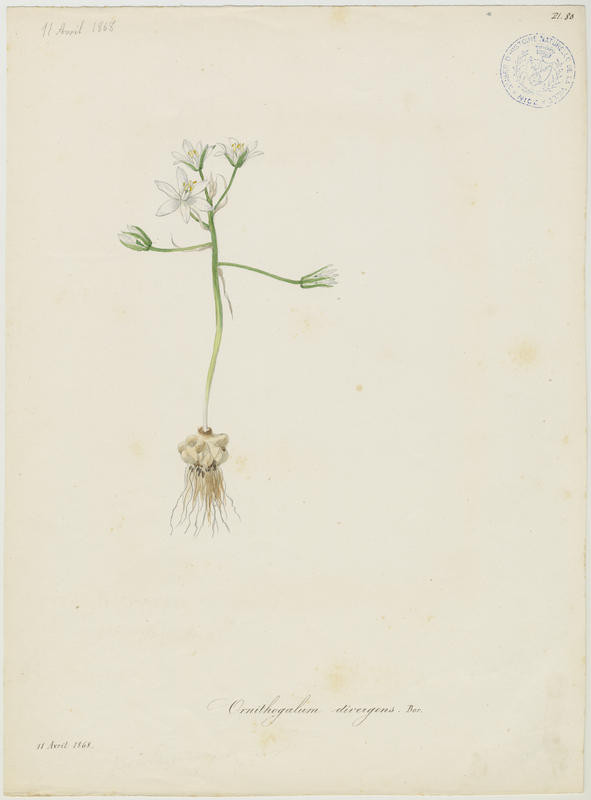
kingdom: Plantae
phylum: Tracheophyta
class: Liliopsida
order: Asparagales
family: Asparagaceae
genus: Ornithogalum
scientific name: Ornithogalum umbellatum
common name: Garden star-of-bethlehem
